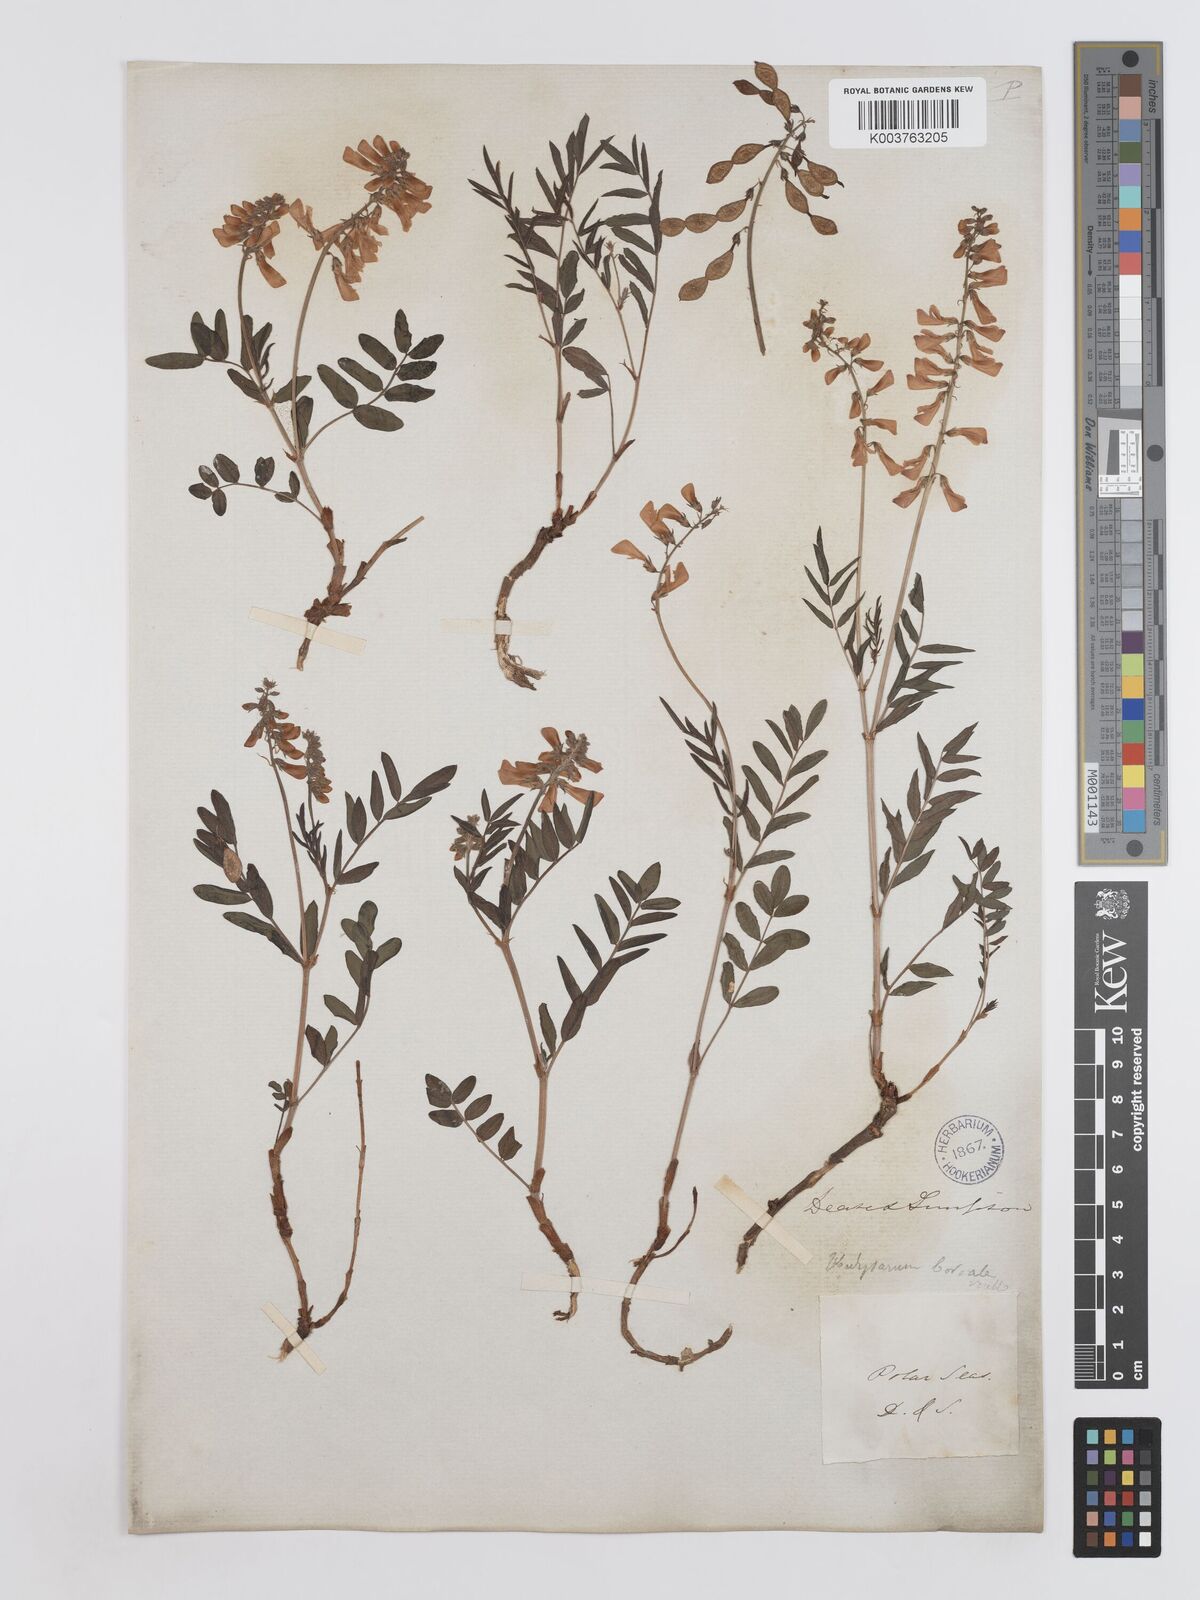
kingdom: Plantae
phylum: Tracheophyta
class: Magnoliopsida
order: Fabales
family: Fabaceae
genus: Hedysarum
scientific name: Hedysarum boreale
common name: Northern sweet-vetch
